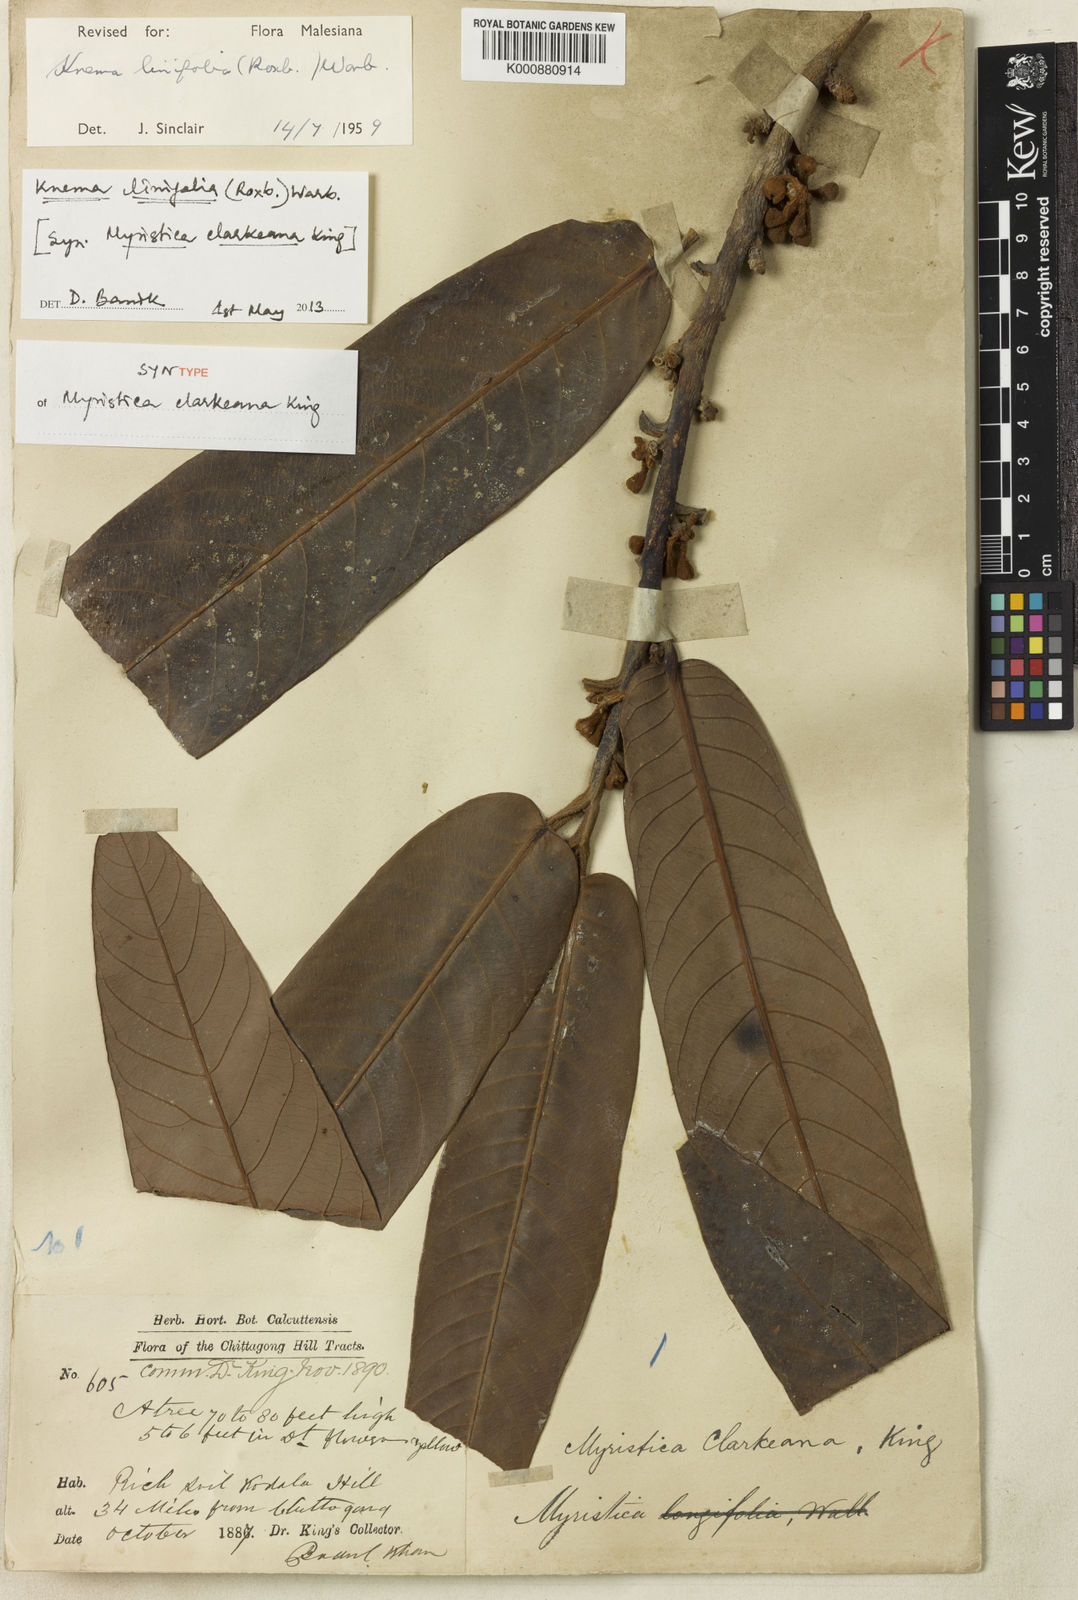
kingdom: Plantae
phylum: Tracheophyta
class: Magnoliopsida
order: Magnoliales
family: Myristicaceae
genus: Knema
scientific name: Knema linifolia
